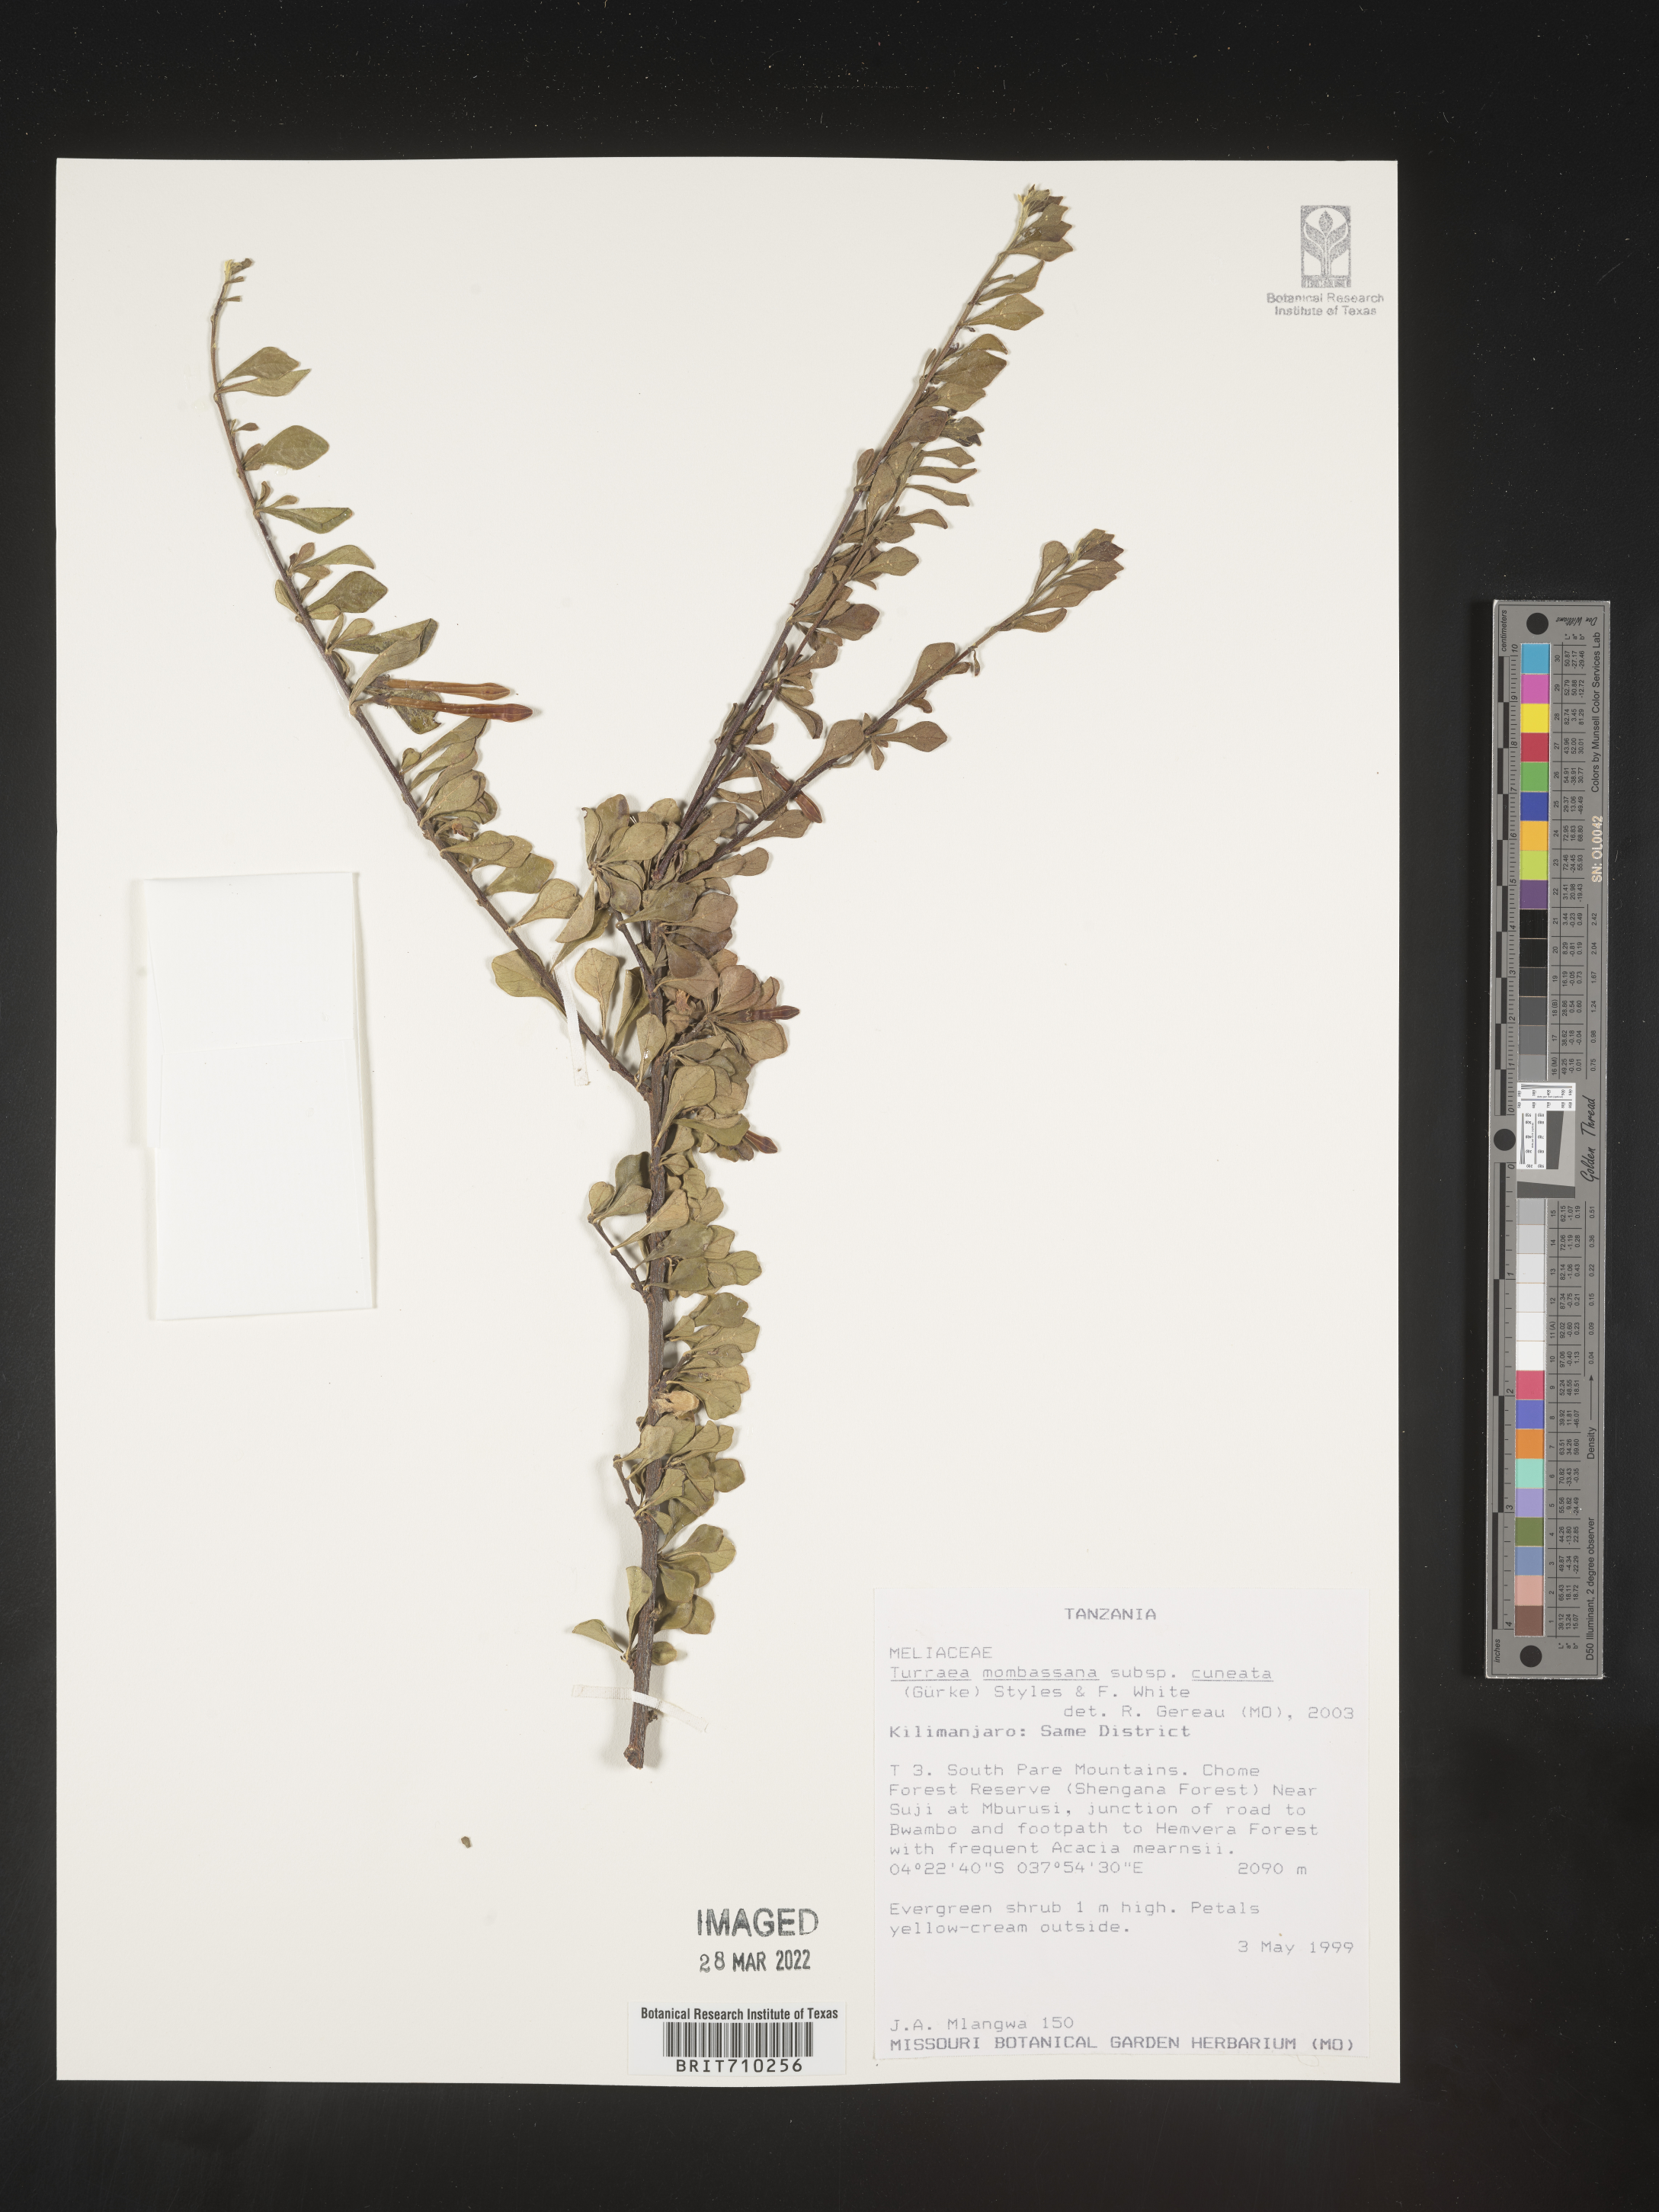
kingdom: Plantae
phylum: Tracheophyta
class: Magnoliopsida
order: Sapindales
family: Meliaceae
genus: Turraea
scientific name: Turraea
